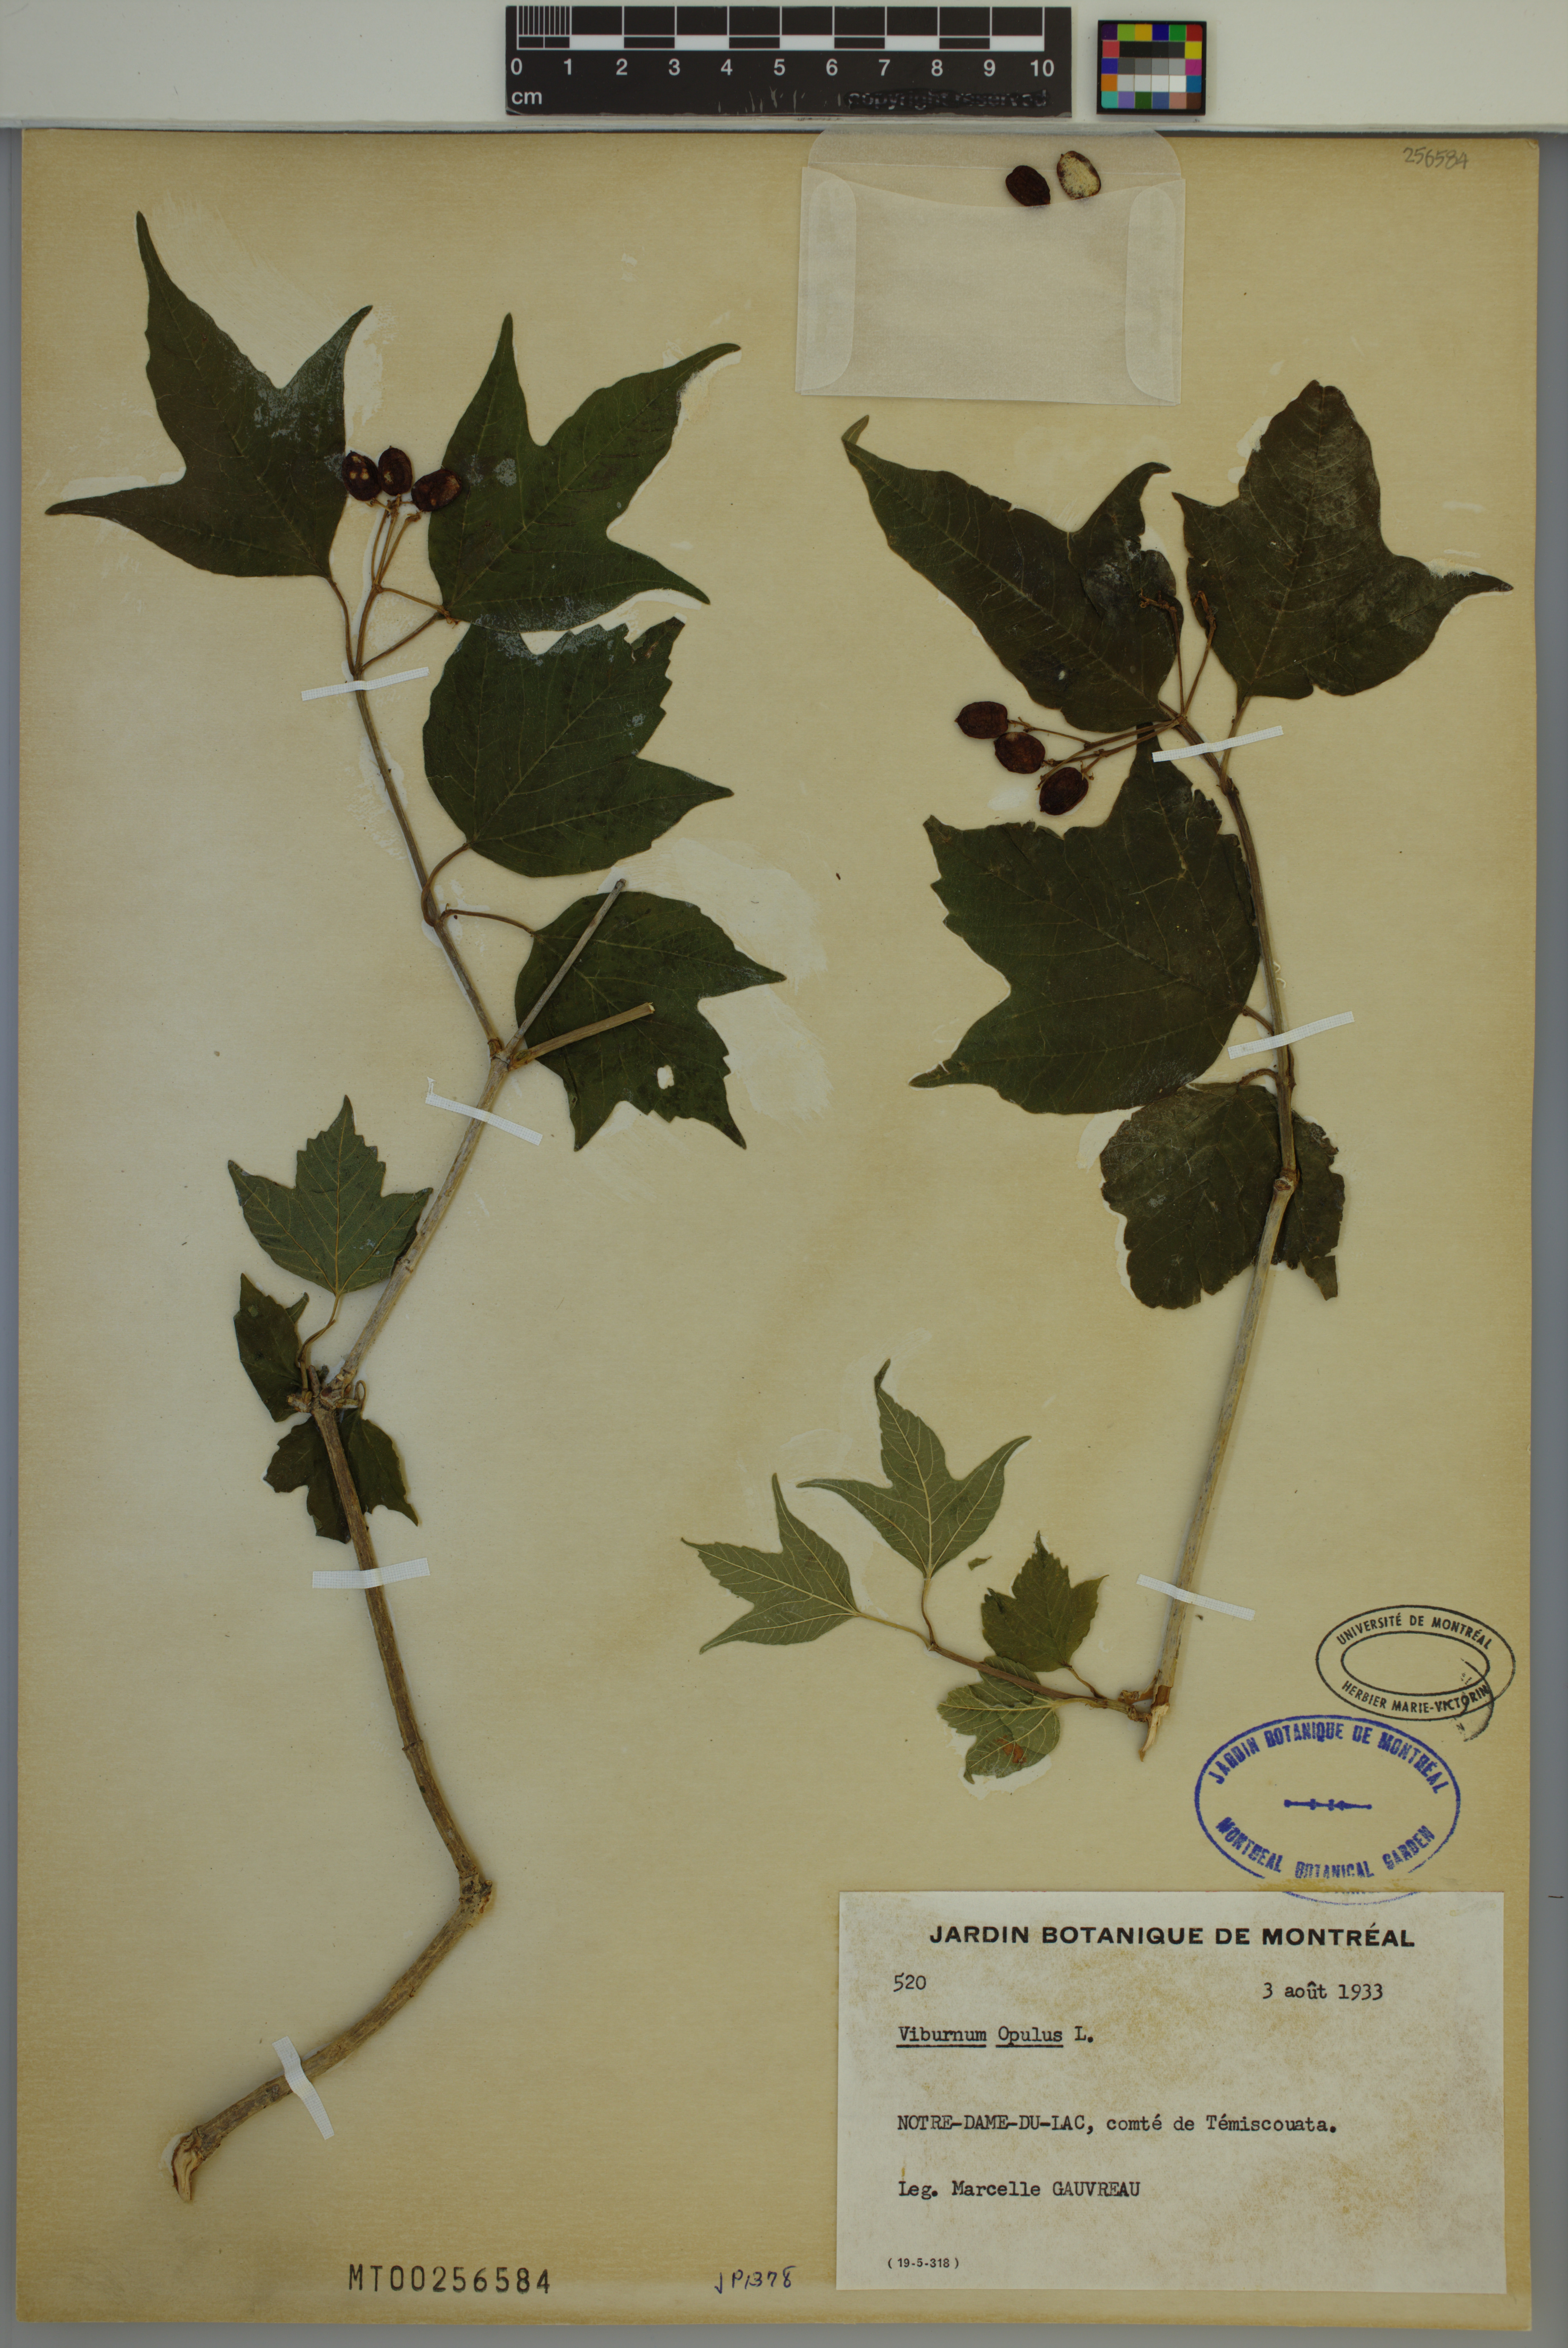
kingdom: Plantae
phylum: Tracheophyta
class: Magnoliopsida
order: Dipsacales
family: Viburnaceae
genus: Viburnum
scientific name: Viburnum opulus
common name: Guelder-rose
